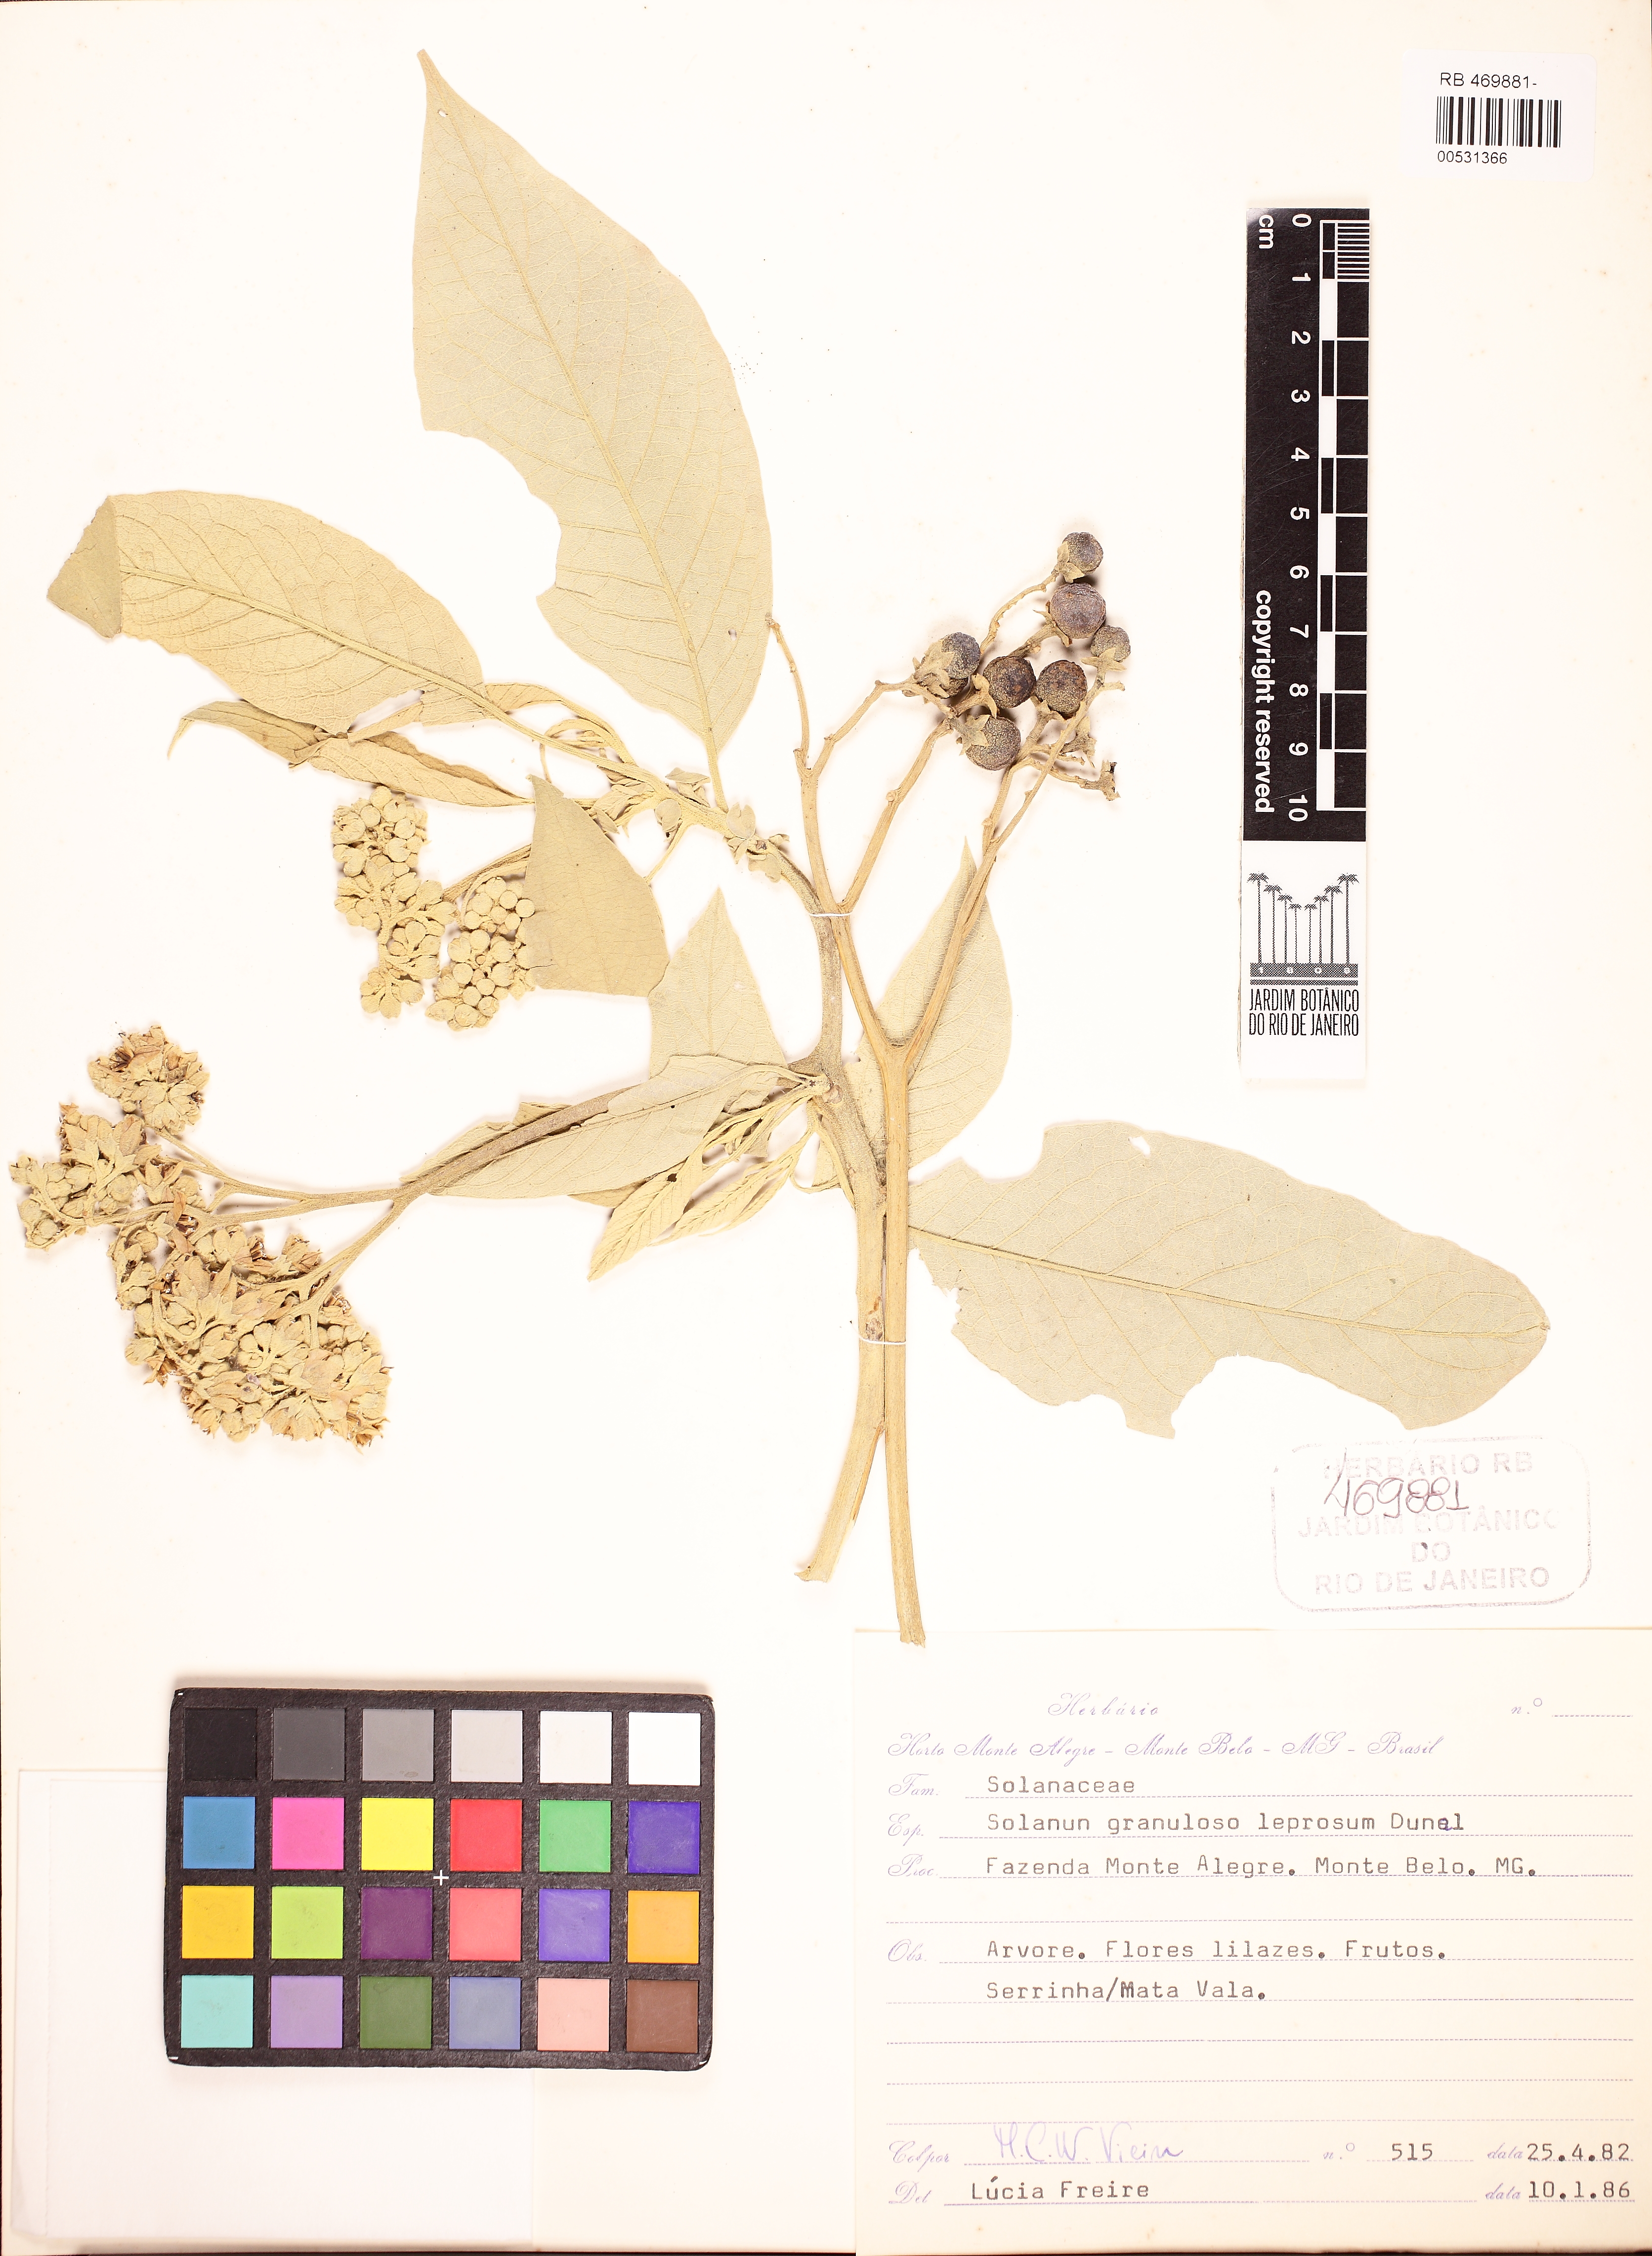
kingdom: Plantae
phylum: Tracheophyta
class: Magnoliopsida
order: Solanales
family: Solanaceae
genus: Solanum
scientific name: Solanum granulosoleprosum
